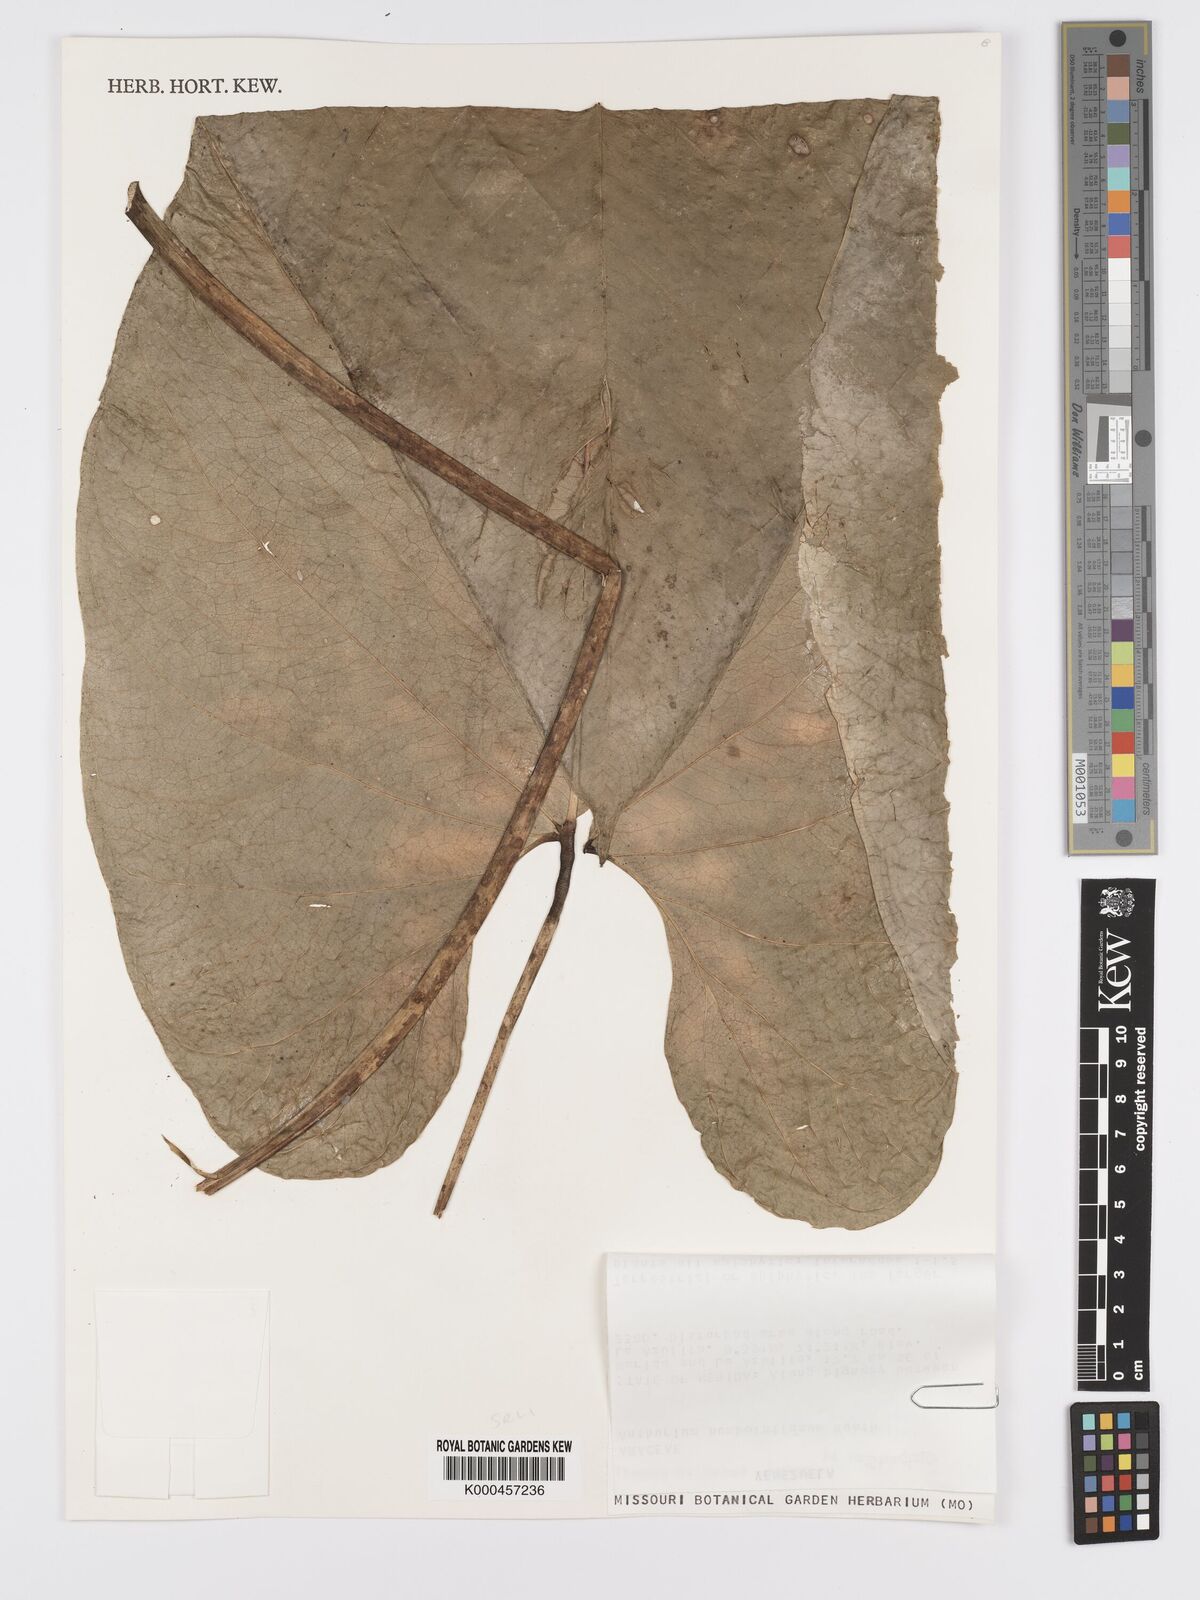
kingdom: Plantae
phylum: Tracheophyta
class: Liliopsida
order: Alismatales
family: Araceae
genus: Anthurium
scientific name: Anthurium
